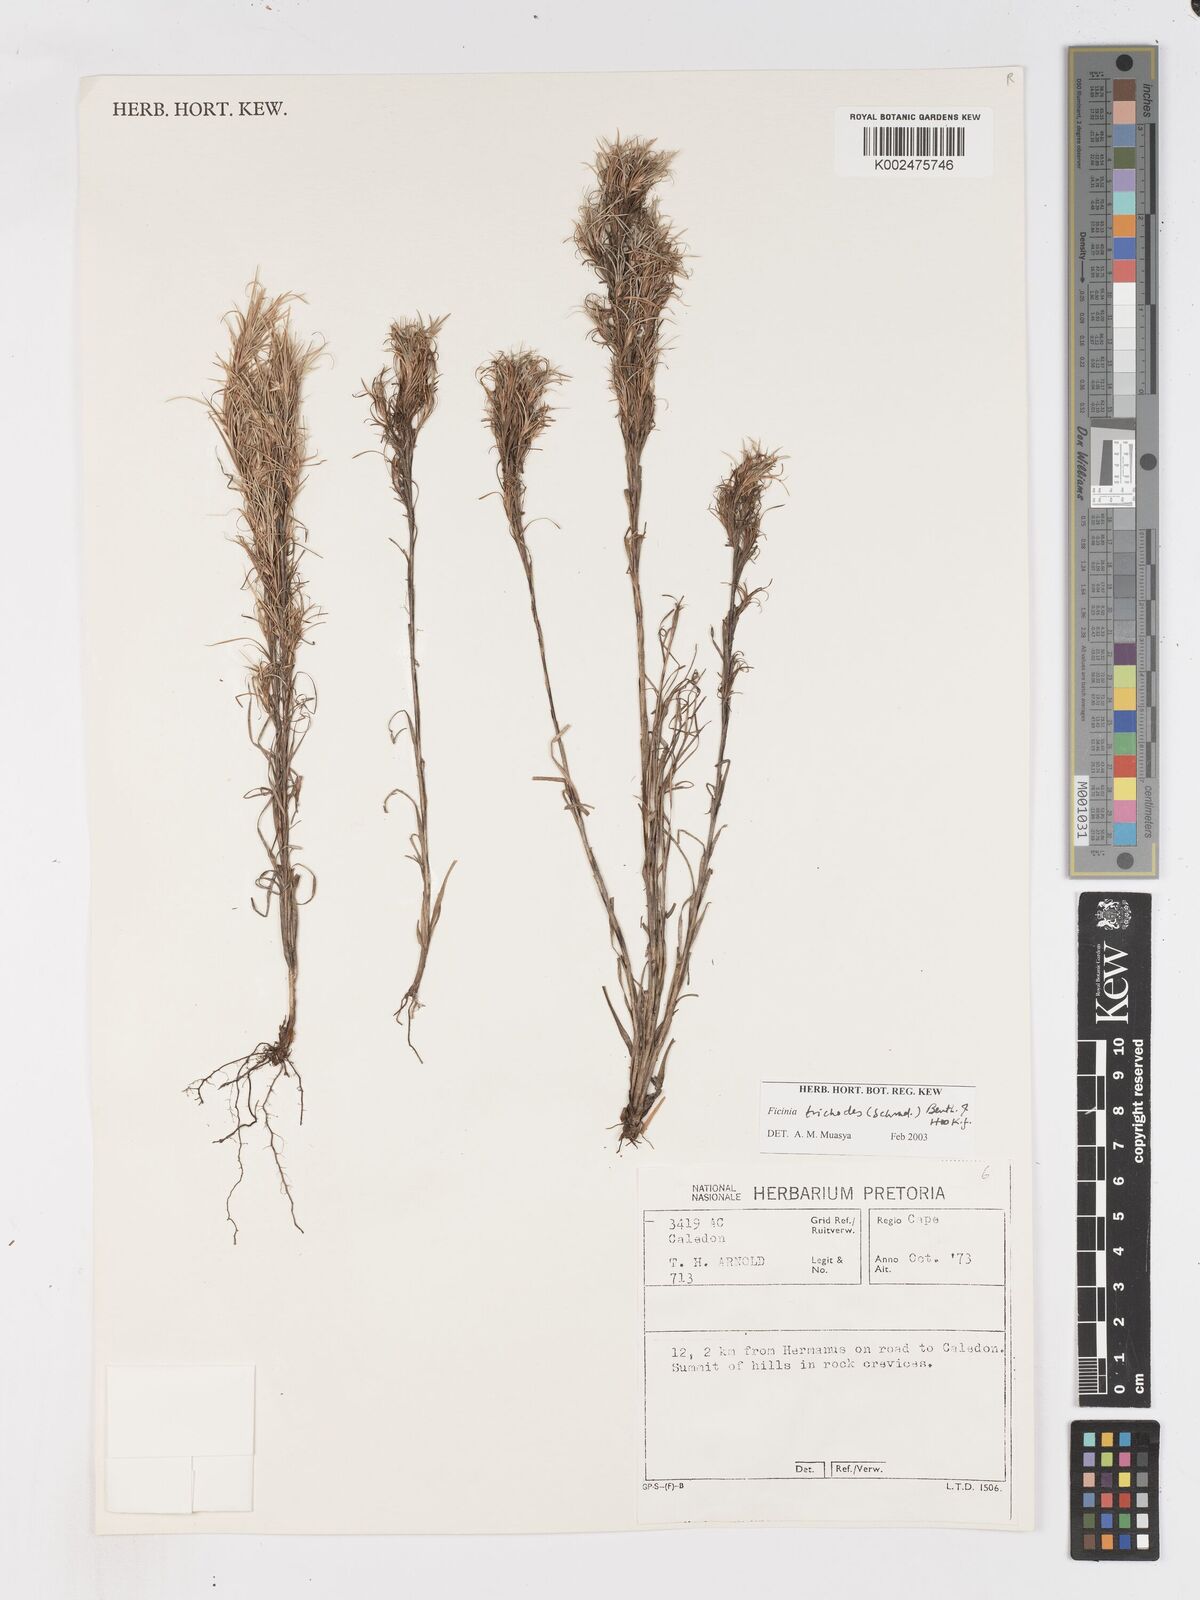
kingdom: Plantae
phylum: Tracheophyta
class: Liliopsida
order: Poales
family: Cyperaceae
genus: Ficinia
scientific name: Ficinia trichodes
